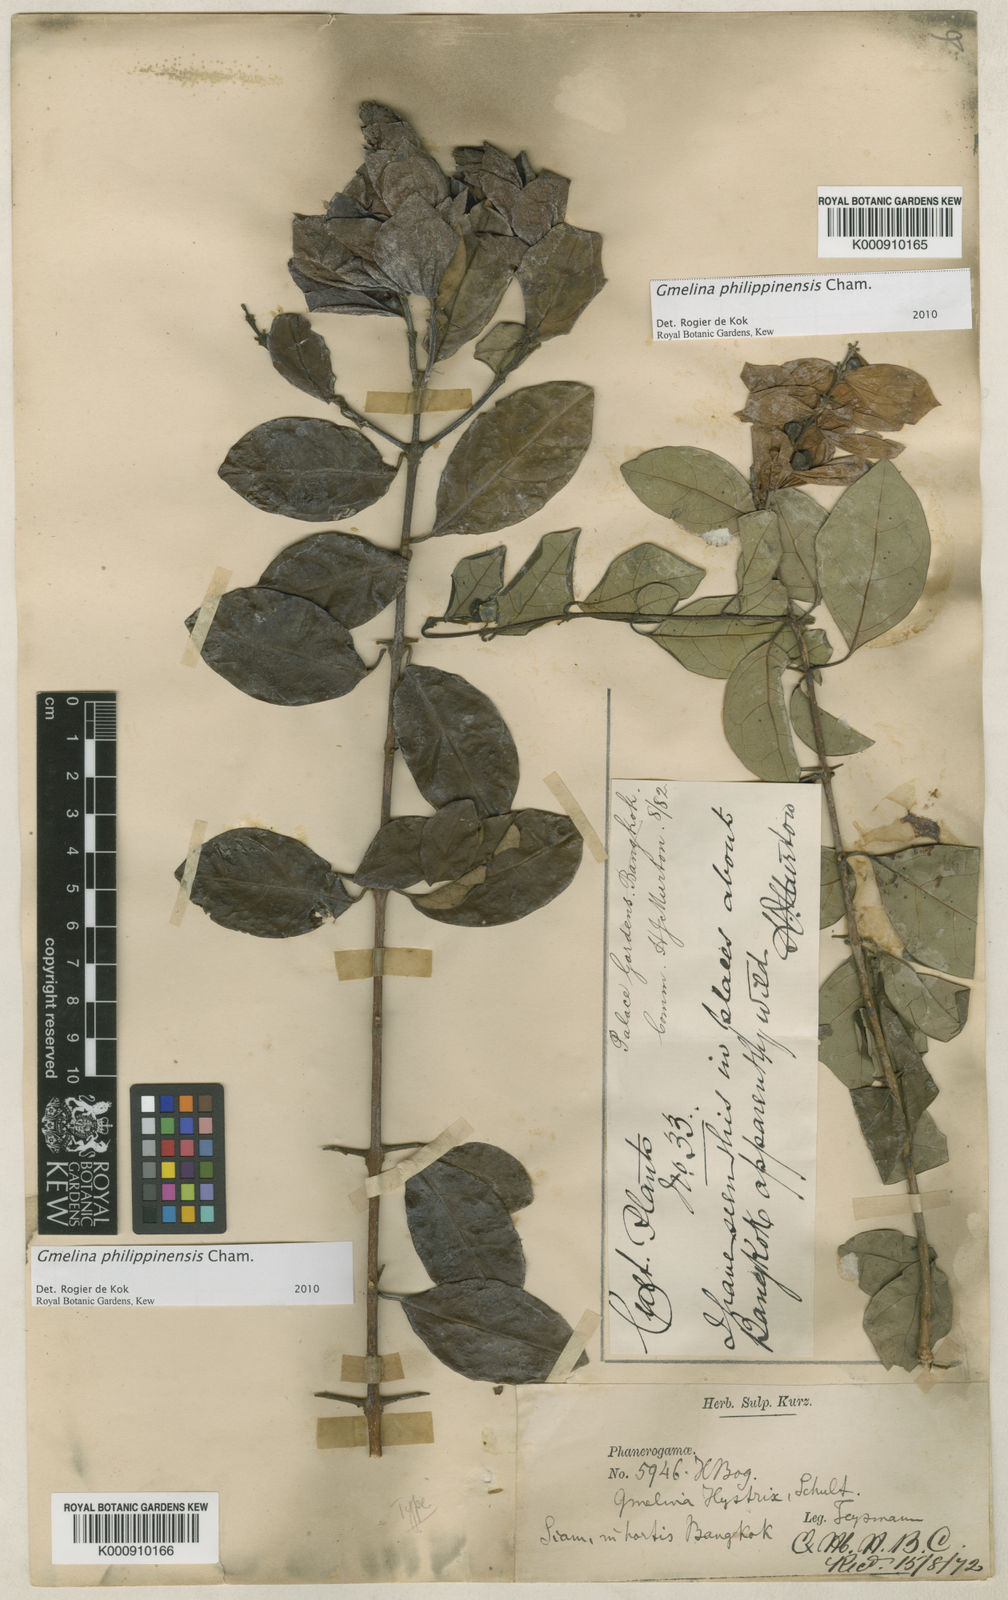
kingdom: Plantae
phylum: Tracheophyta
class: Magnoliopsida
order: Lamiales
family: Lamiaceae
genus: Gmelina
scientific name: Gmelina
